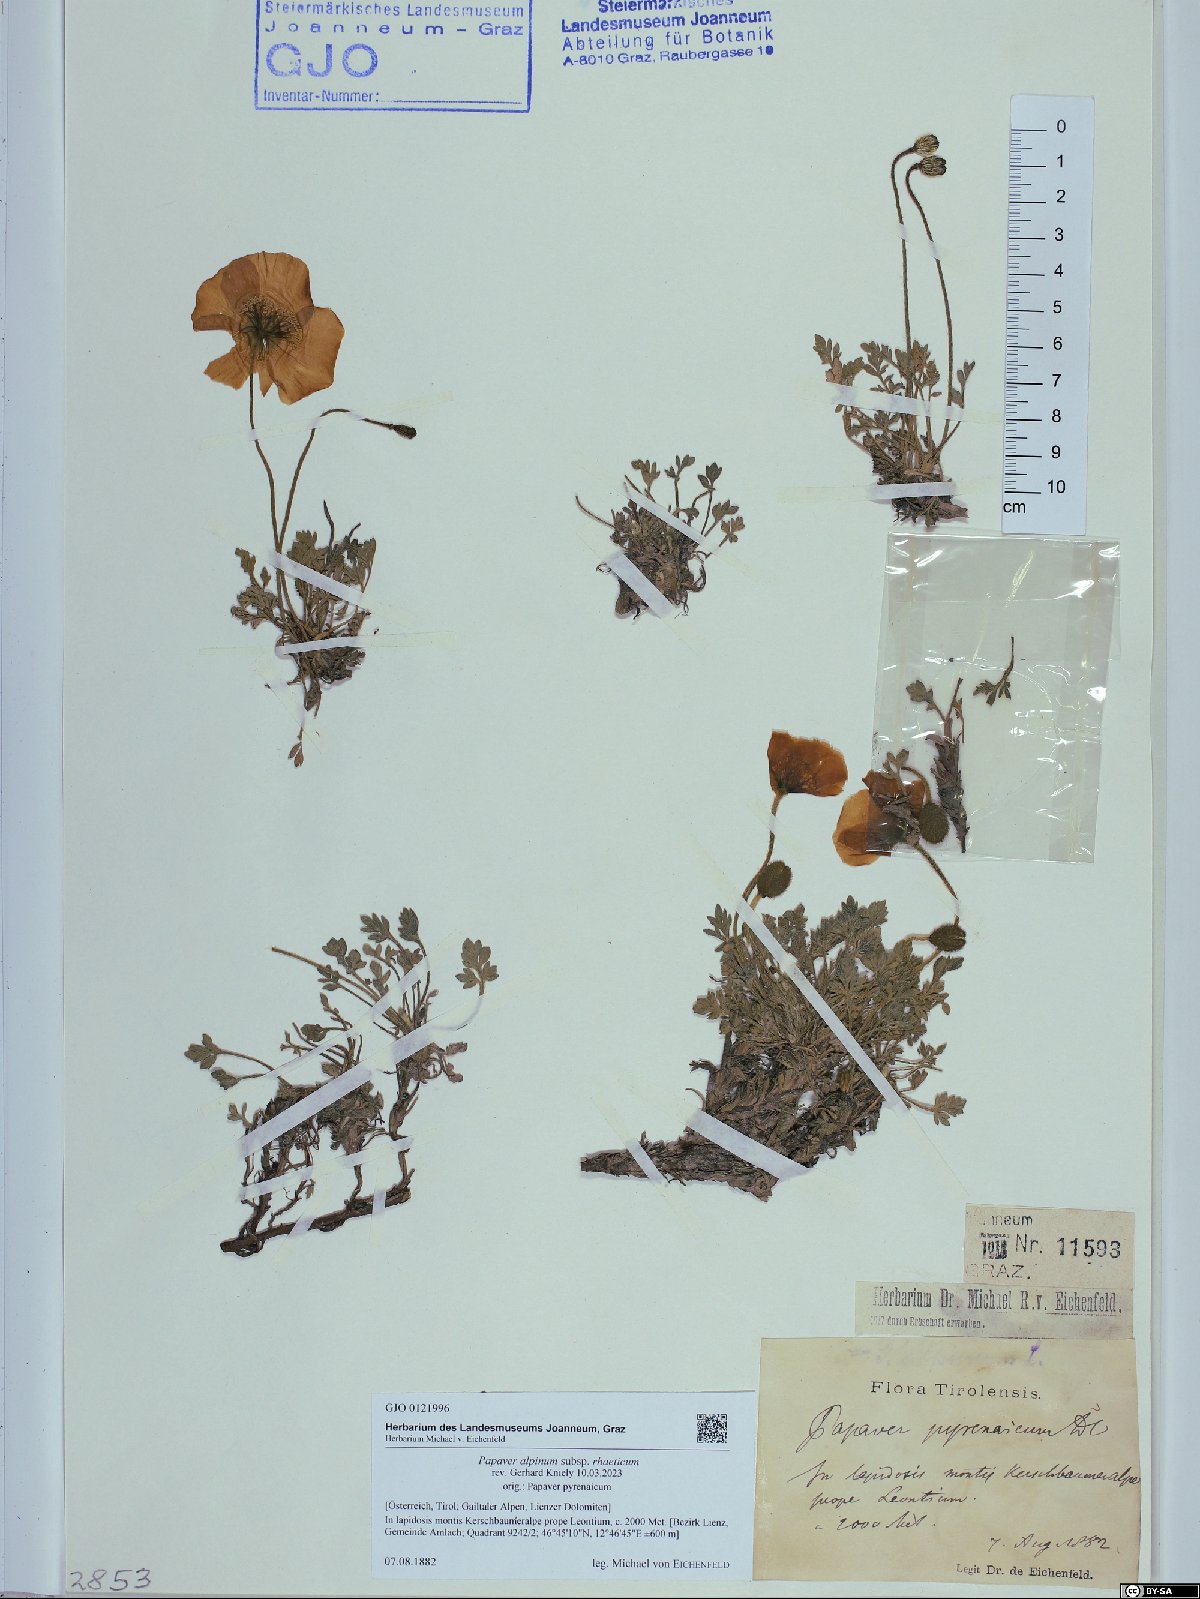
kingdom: Plantae
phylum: Tracheophyta
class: Magnoliopsida
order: Ranunculales
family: Papaveraceae
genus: Papaver
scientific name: Papaver alpinum
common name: Austrian poppy
